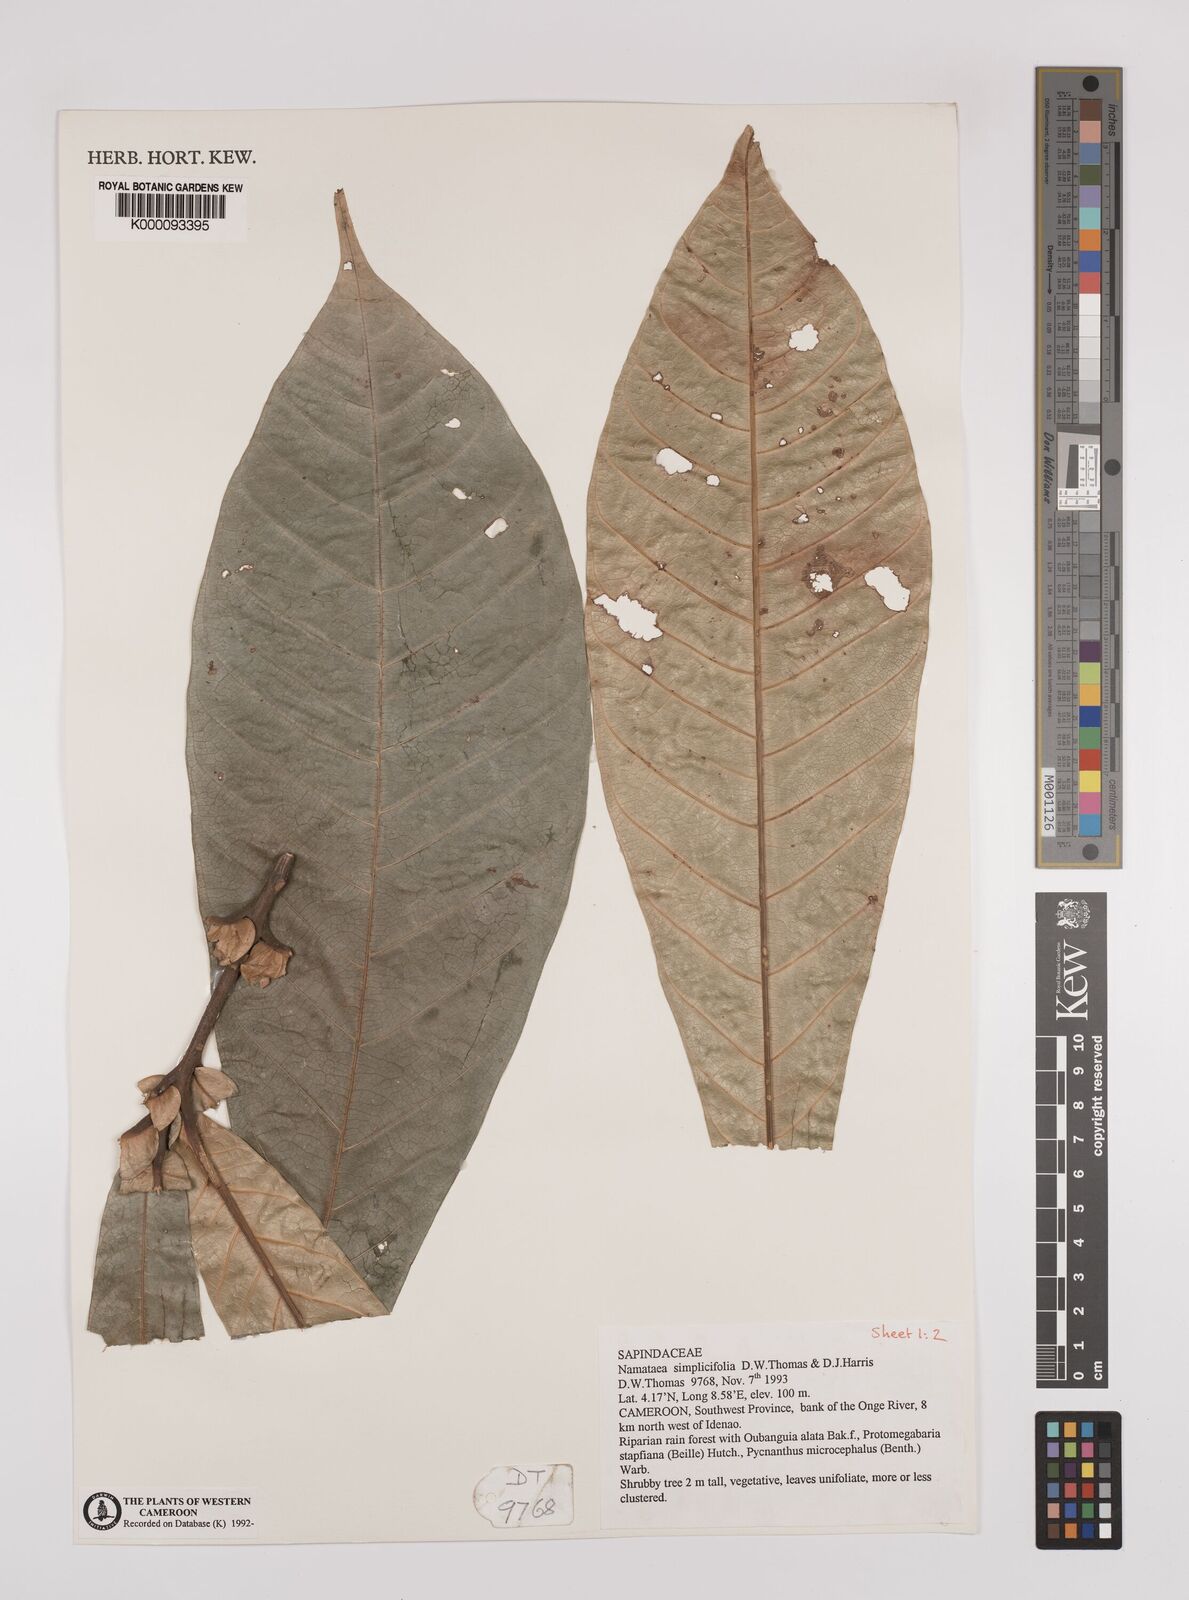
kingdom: Plantae
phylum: Tracheophyta
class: Magnoliopsida
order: Sapindales
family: Sapindaceae
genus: Namataea
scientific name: Namataea simplicifolia
